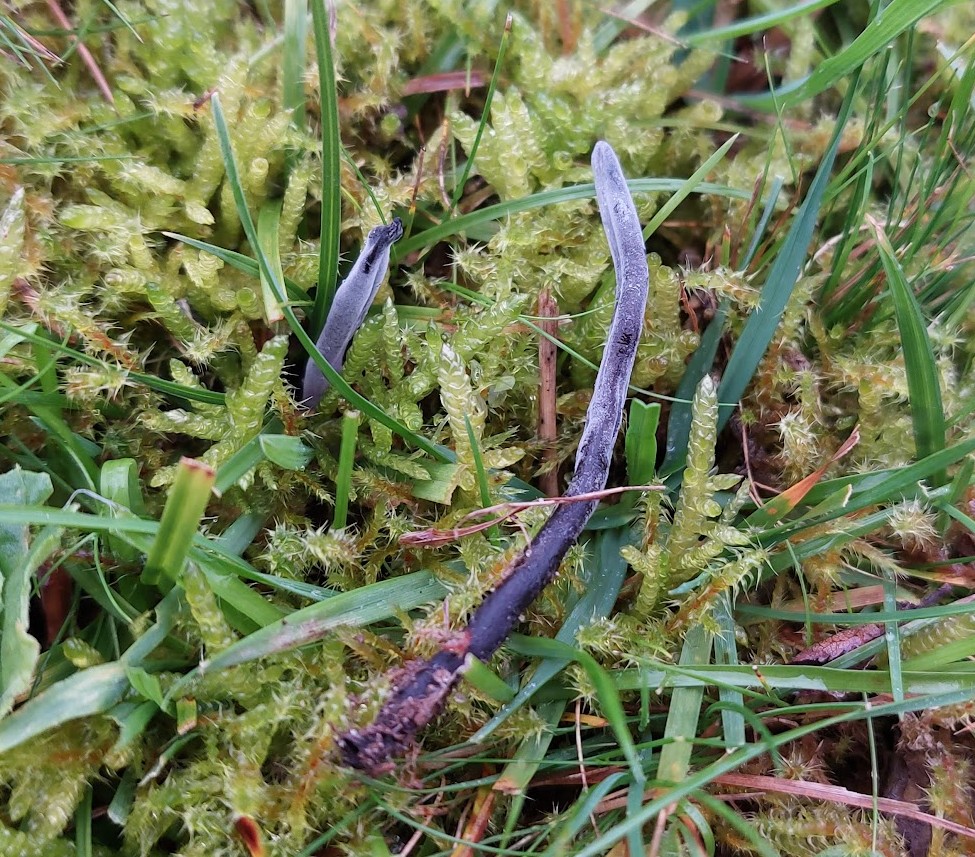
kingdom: Fungi
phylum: Ascomycota
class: Geoglossomycetes
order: Geoglossales
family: Geoglossaceae
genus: Geoglossum
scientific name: Geoglossum umbratile
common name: slank jordtunge
